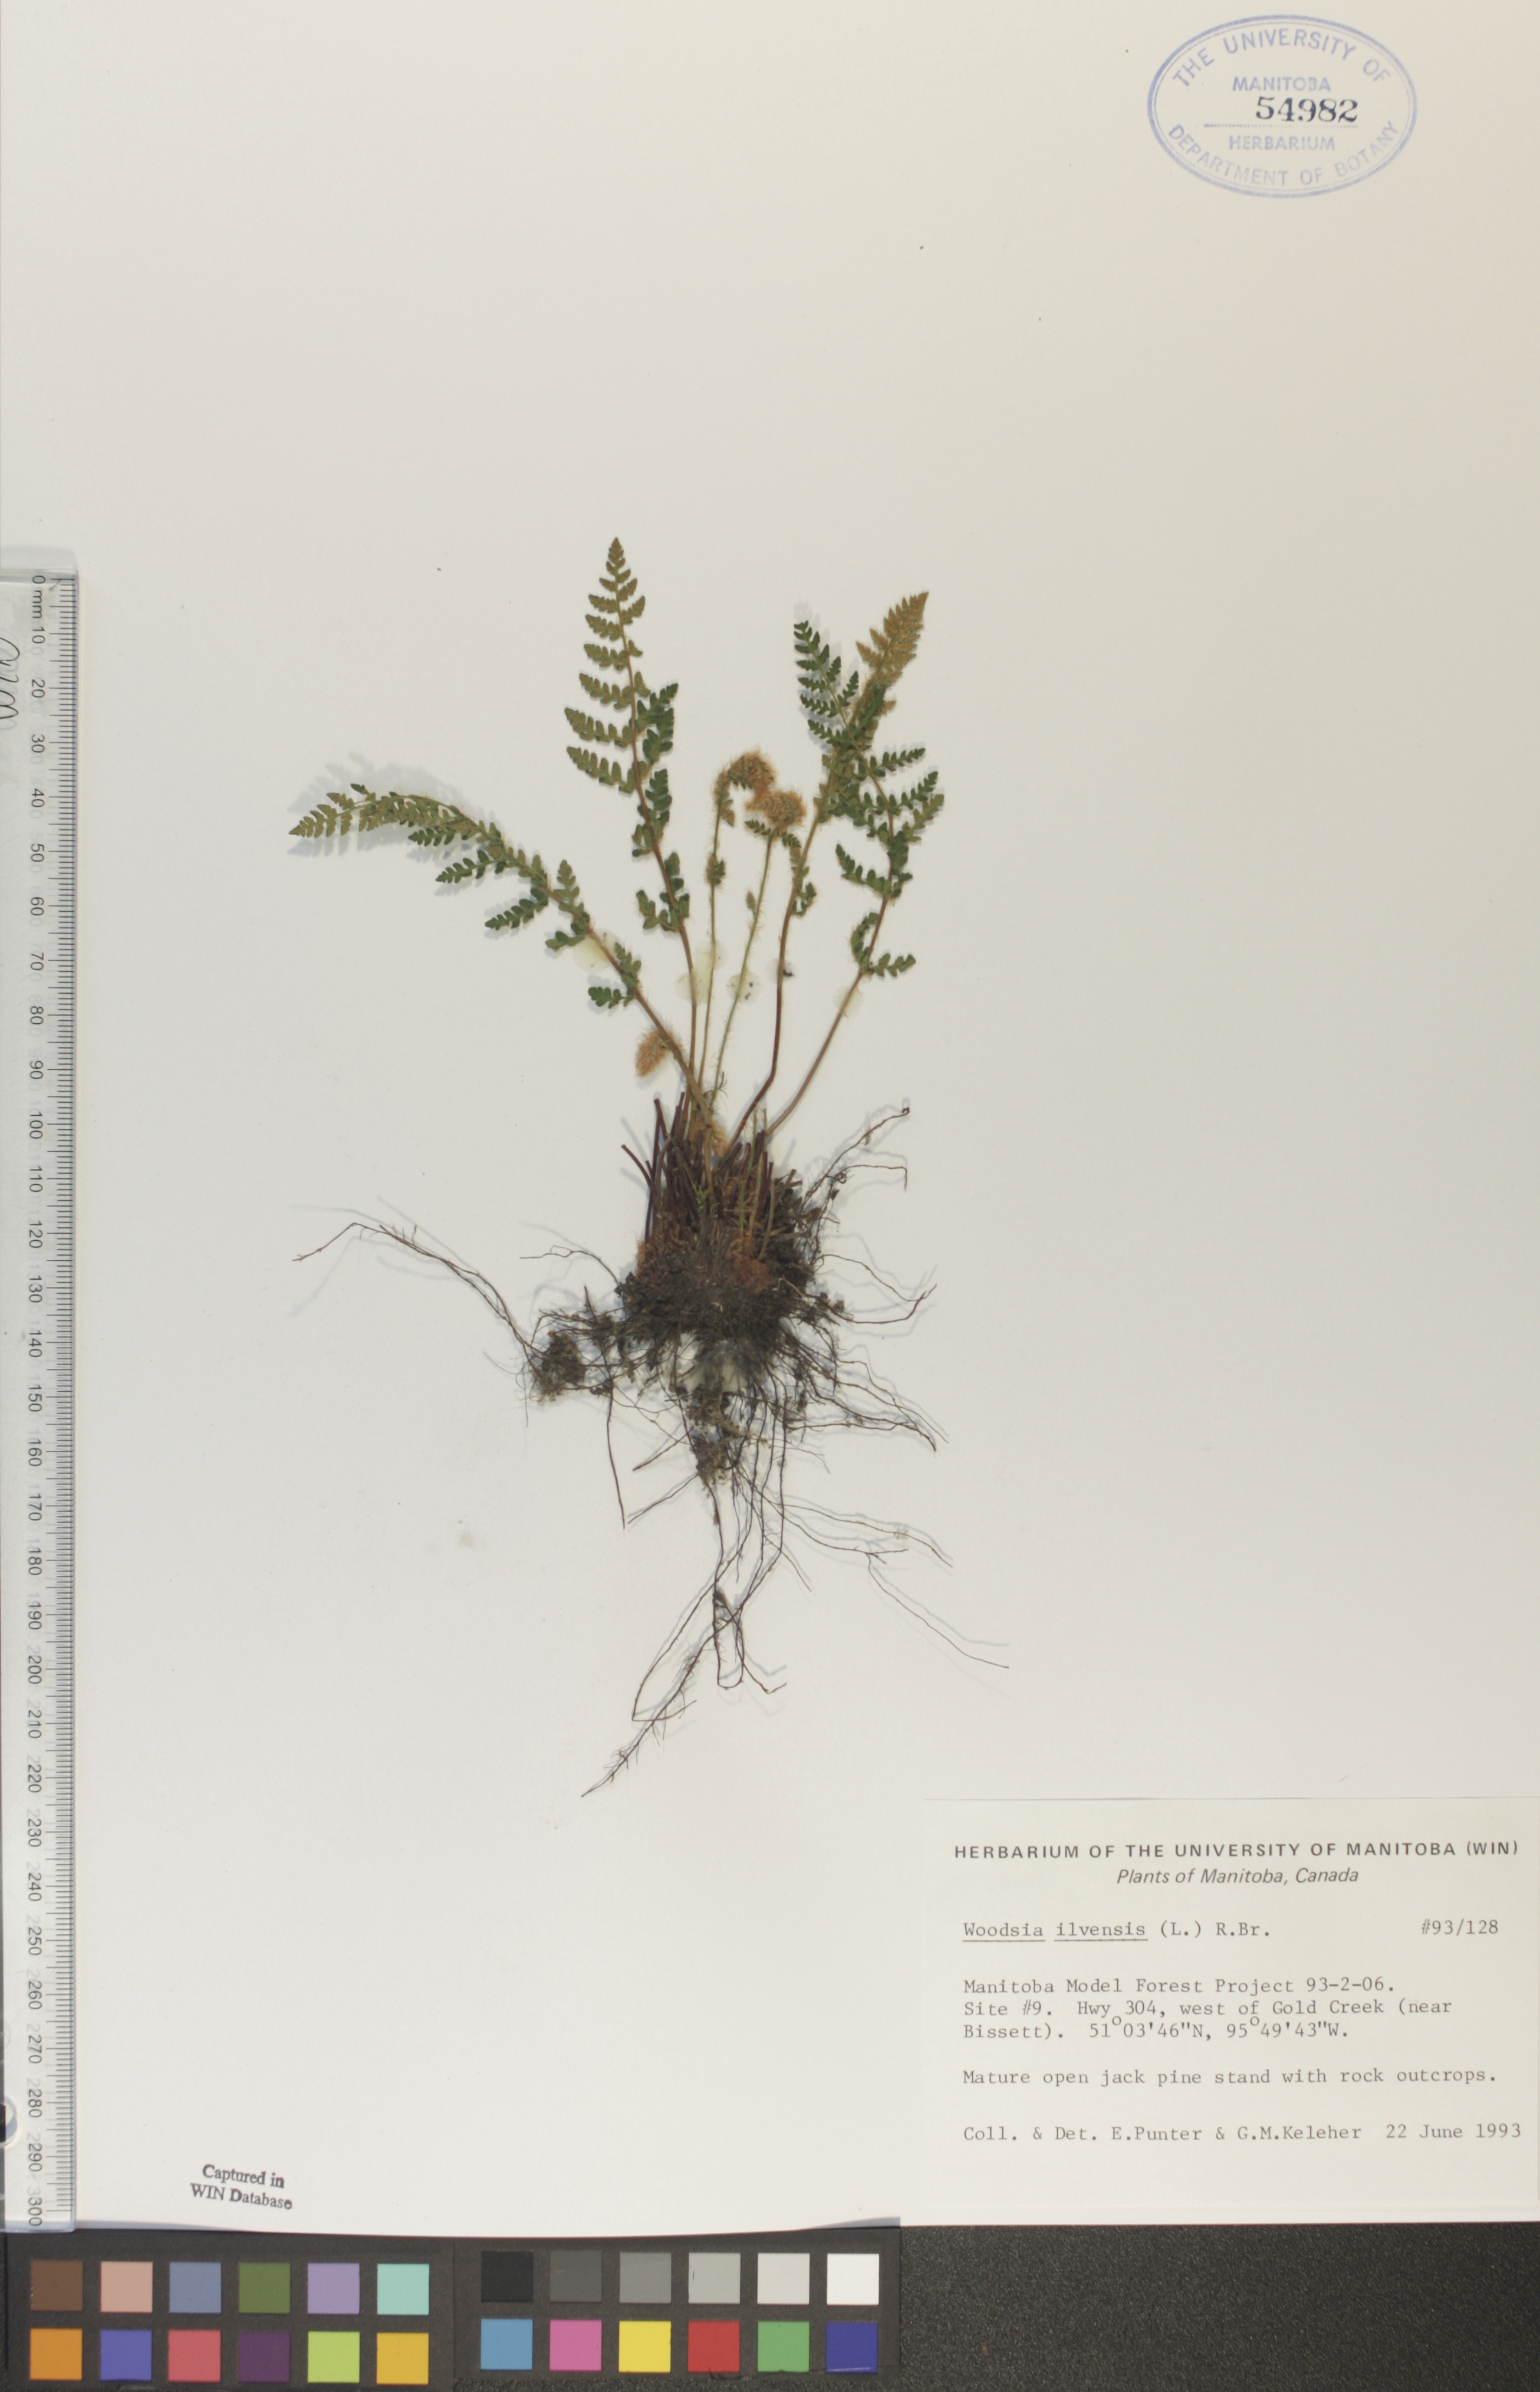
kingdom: Plantae
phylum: Tracheophyta
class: Polypodiopsida
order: Polypodiales
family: Woodsiaceae
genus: Woodsia
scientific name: Woodsia ilvensis
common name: Fragrant woodsia
